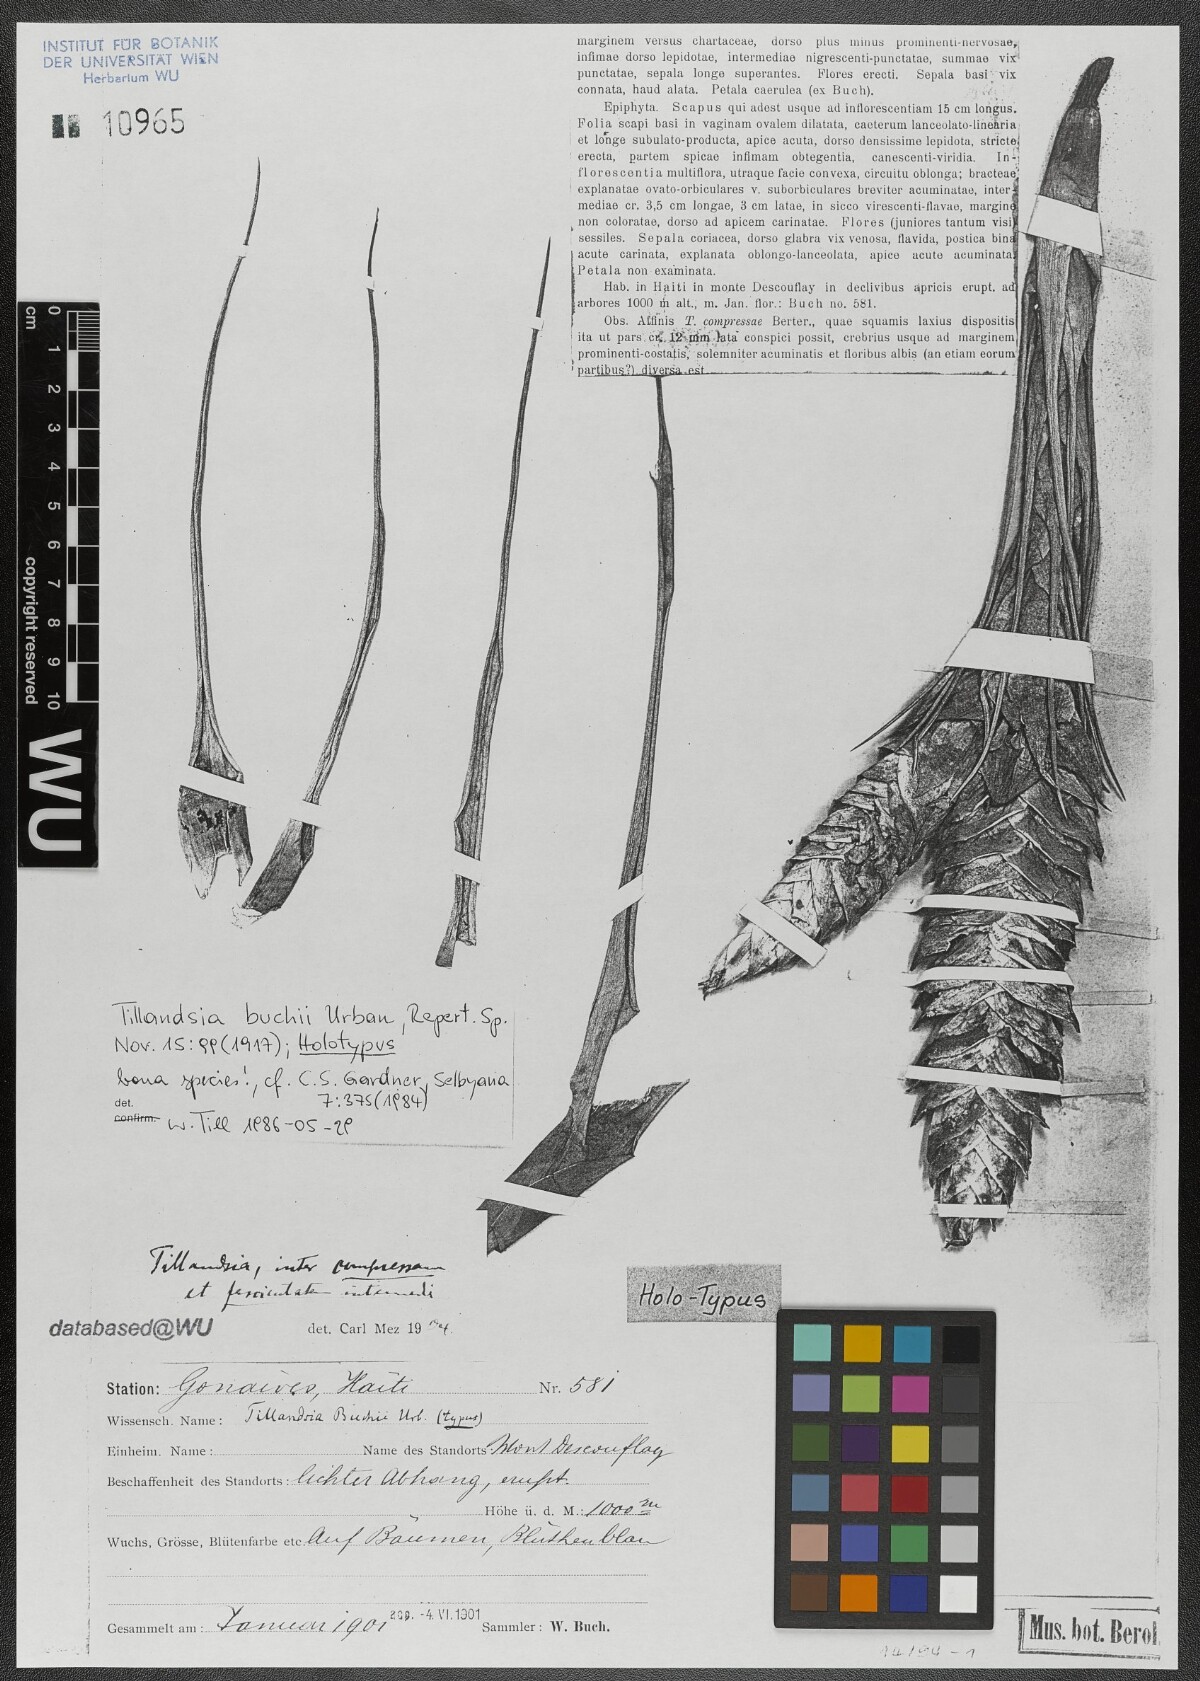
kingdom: Plantae
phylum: Tracheophyta
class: Liliopsida
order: Poales
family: Bromeliaceae
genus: Tillandsia
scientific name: Tillandsia compressa
